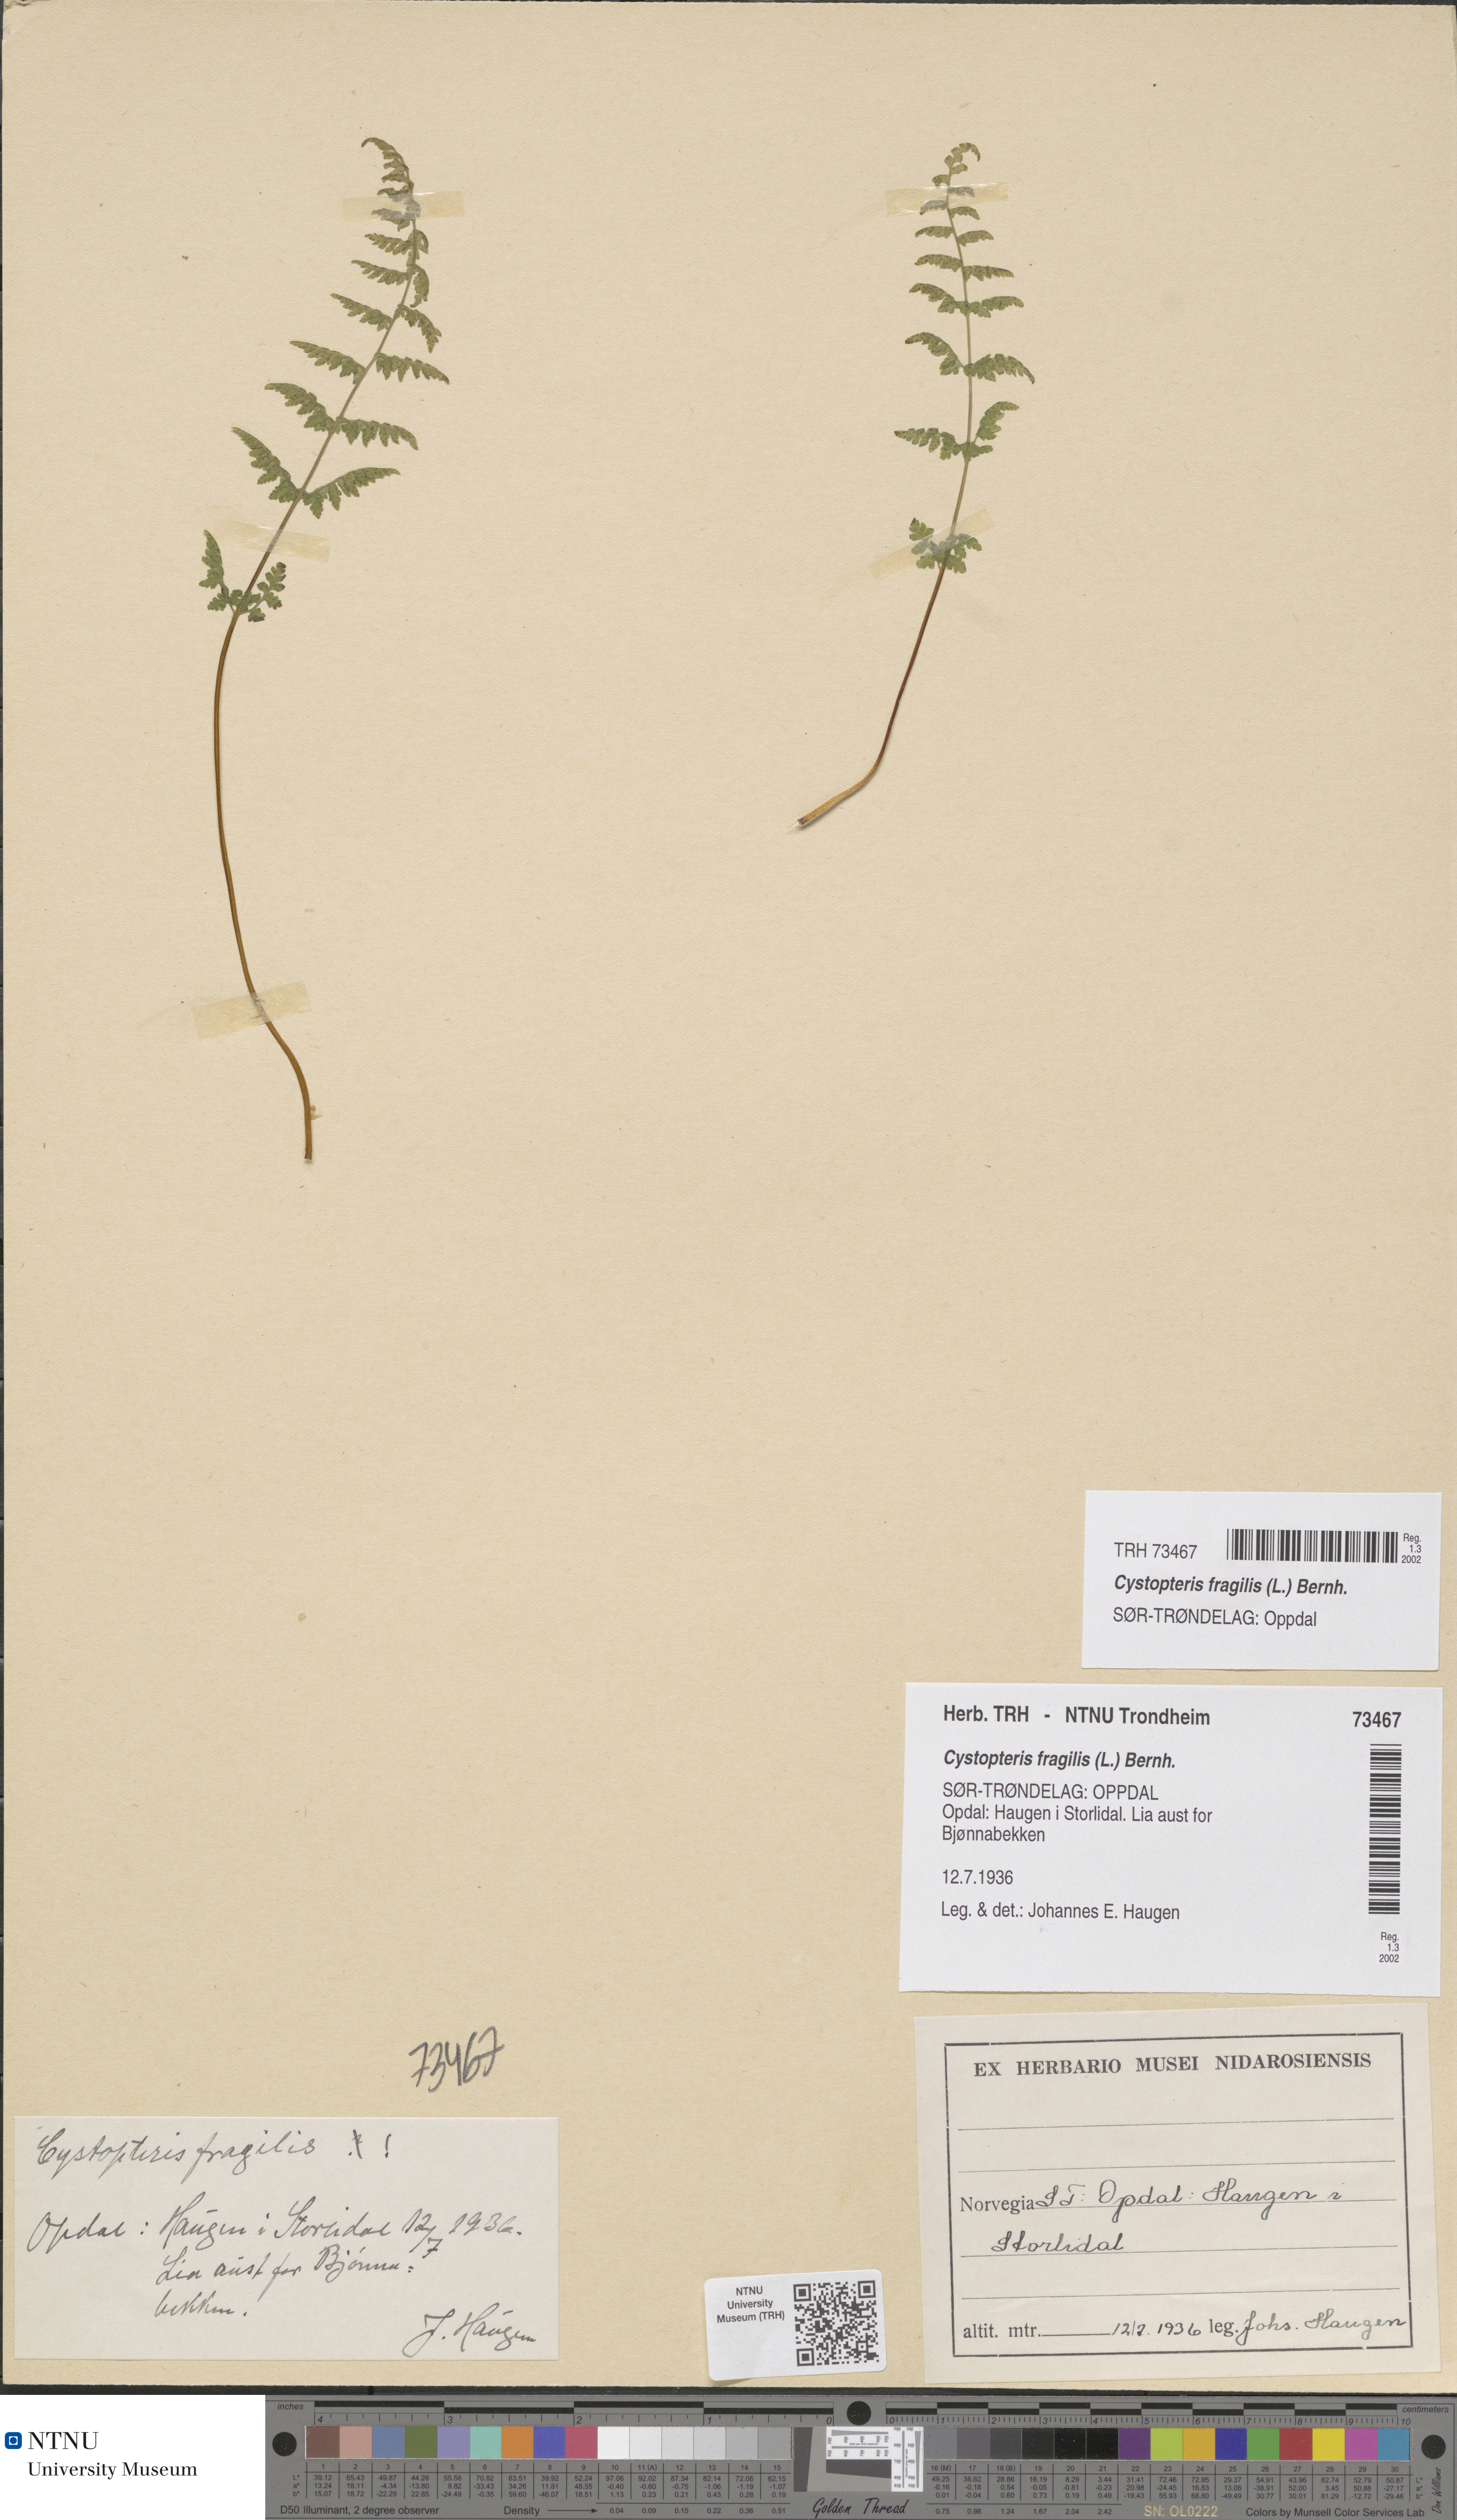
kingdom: Plantae
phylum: Tracheophyta
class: Polypodiopsida
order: Polypodiales
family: Cystopteridaceae
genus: Cystopteris
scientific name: Cystopteris fragilis
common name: Brittle bladder fern
